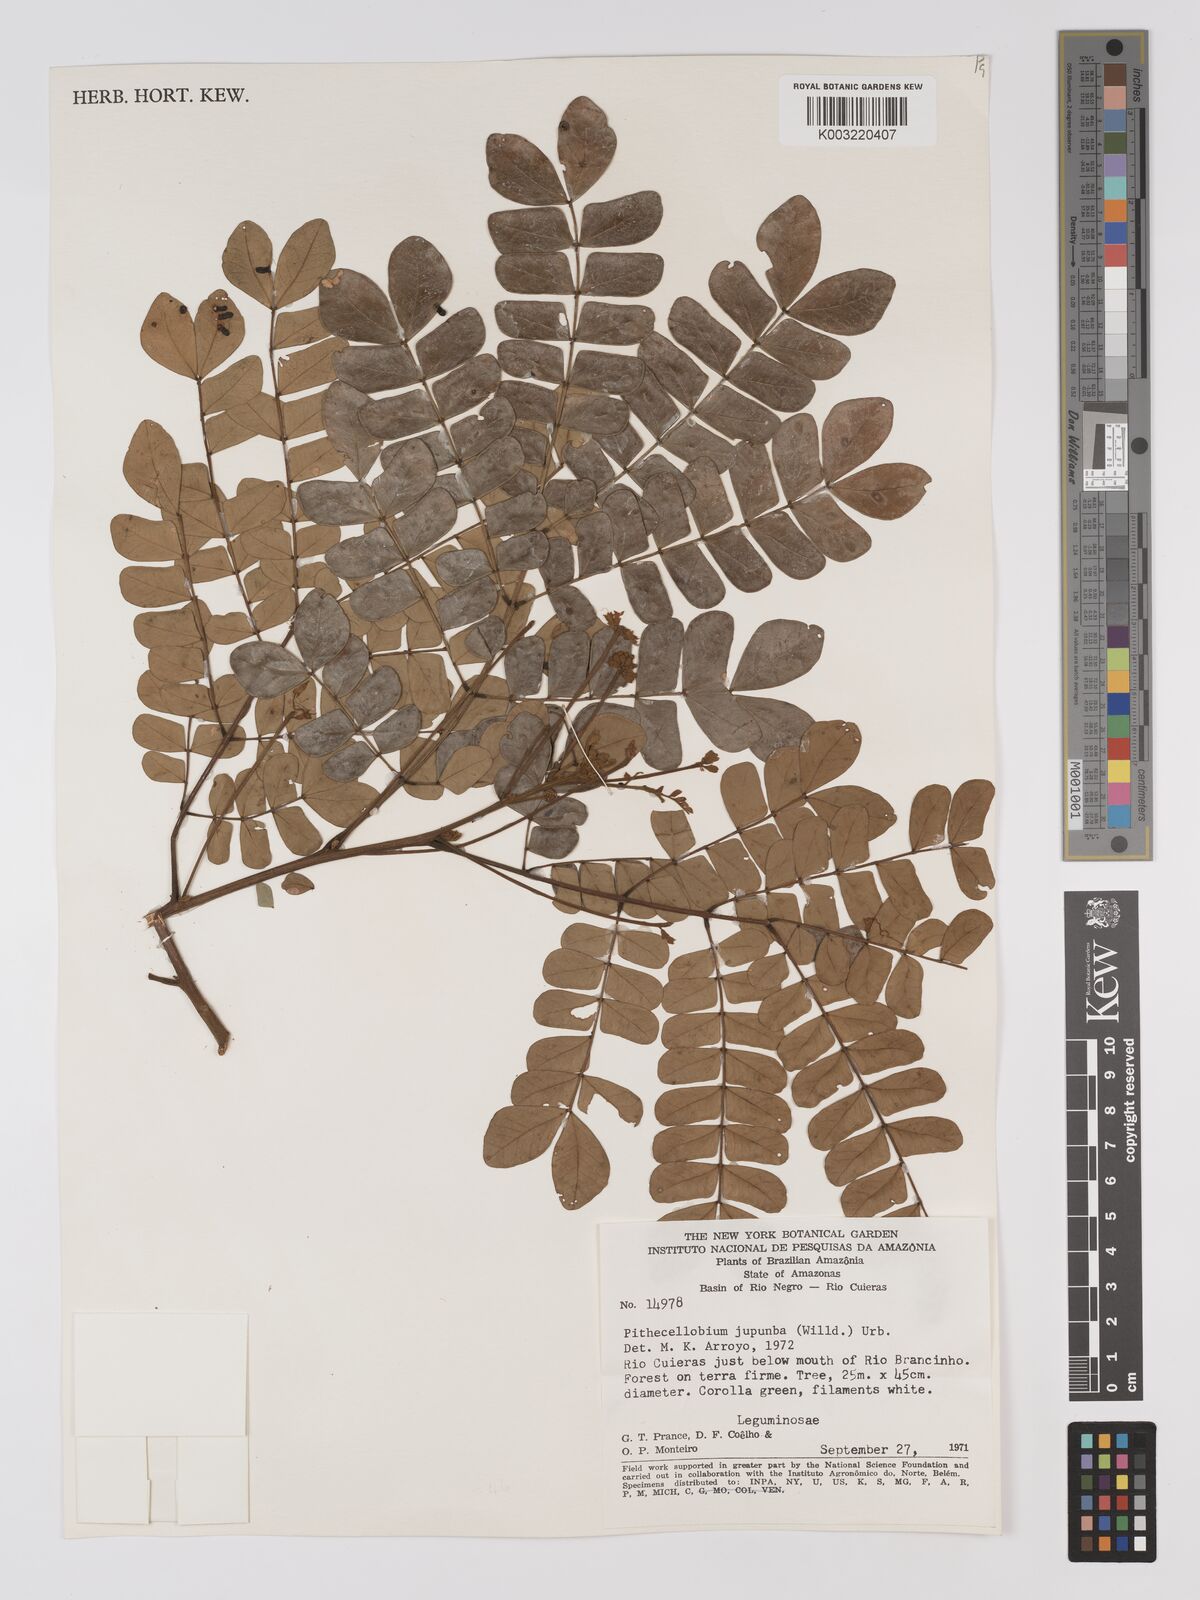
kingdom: Plantae
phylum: Tracheophyta
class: Magnoliopsida
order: Fabales
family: Fabaceae
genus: Jupunba
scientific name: Jupunba trapezifolia
